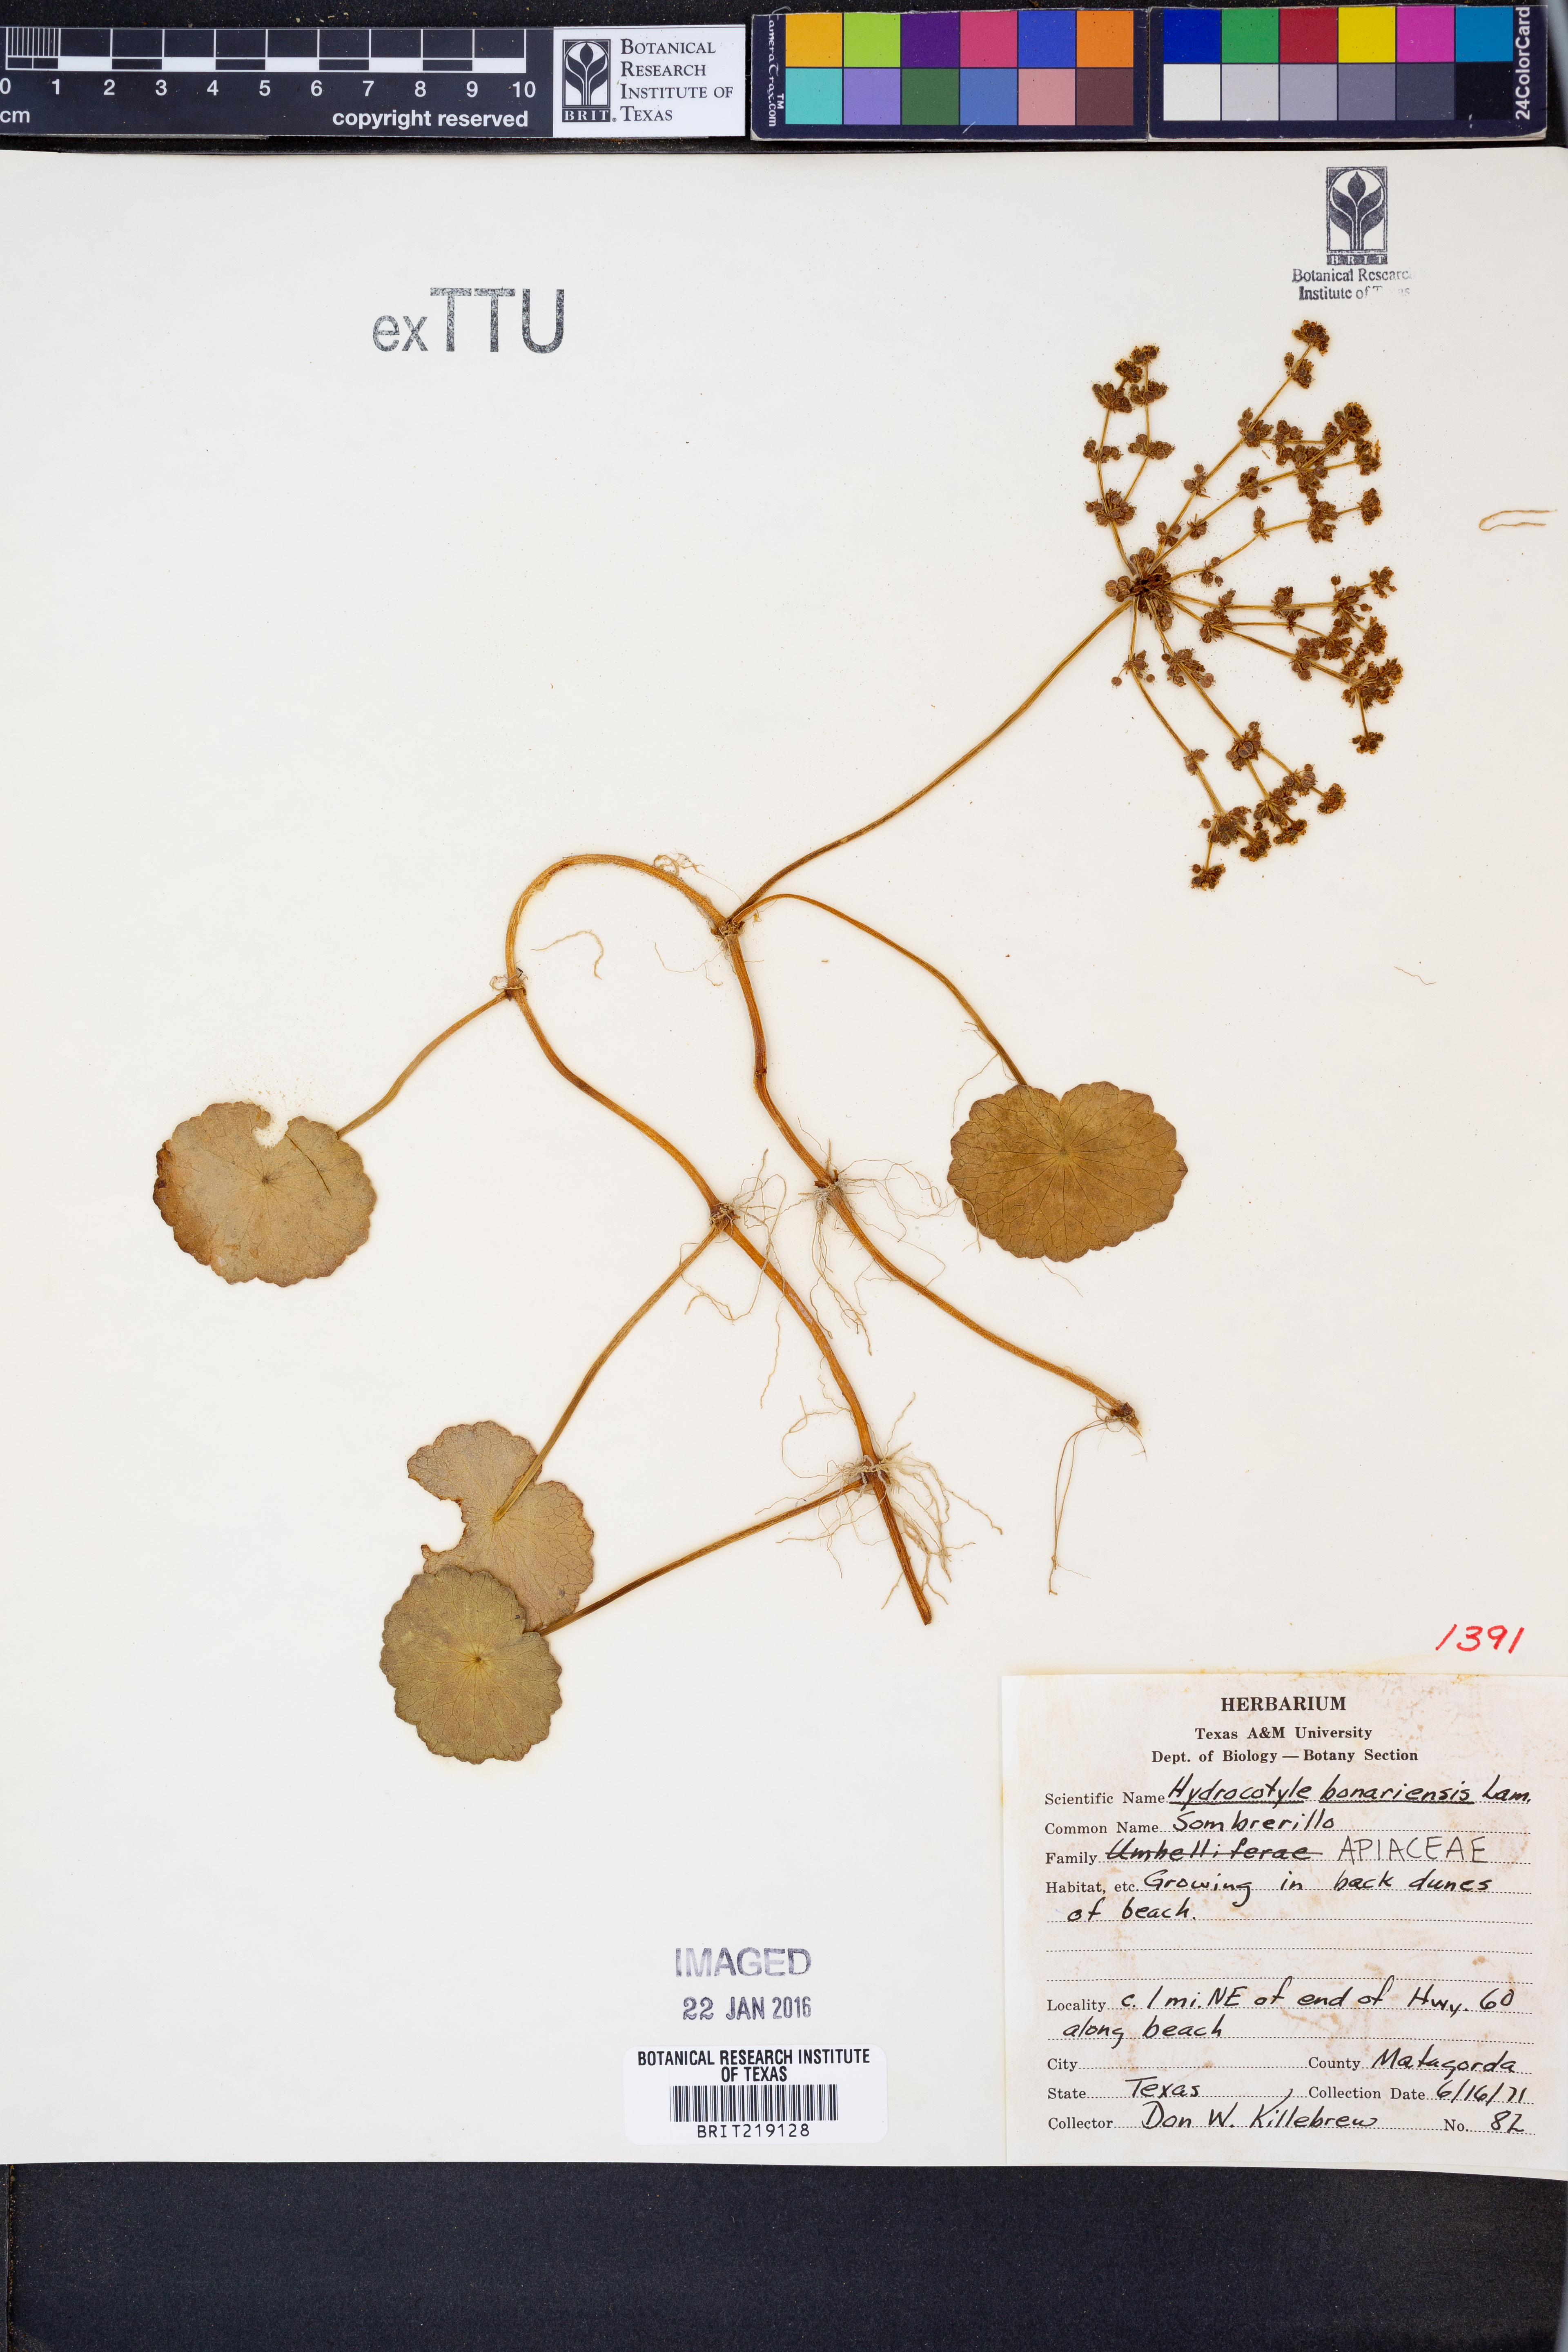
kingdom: Plantae
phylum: Tracheophyta
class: Magnoliopsida
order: Apiales
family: Araliaceae
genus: Hydrocotyle
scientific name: Hydrocotyle bonariensis
